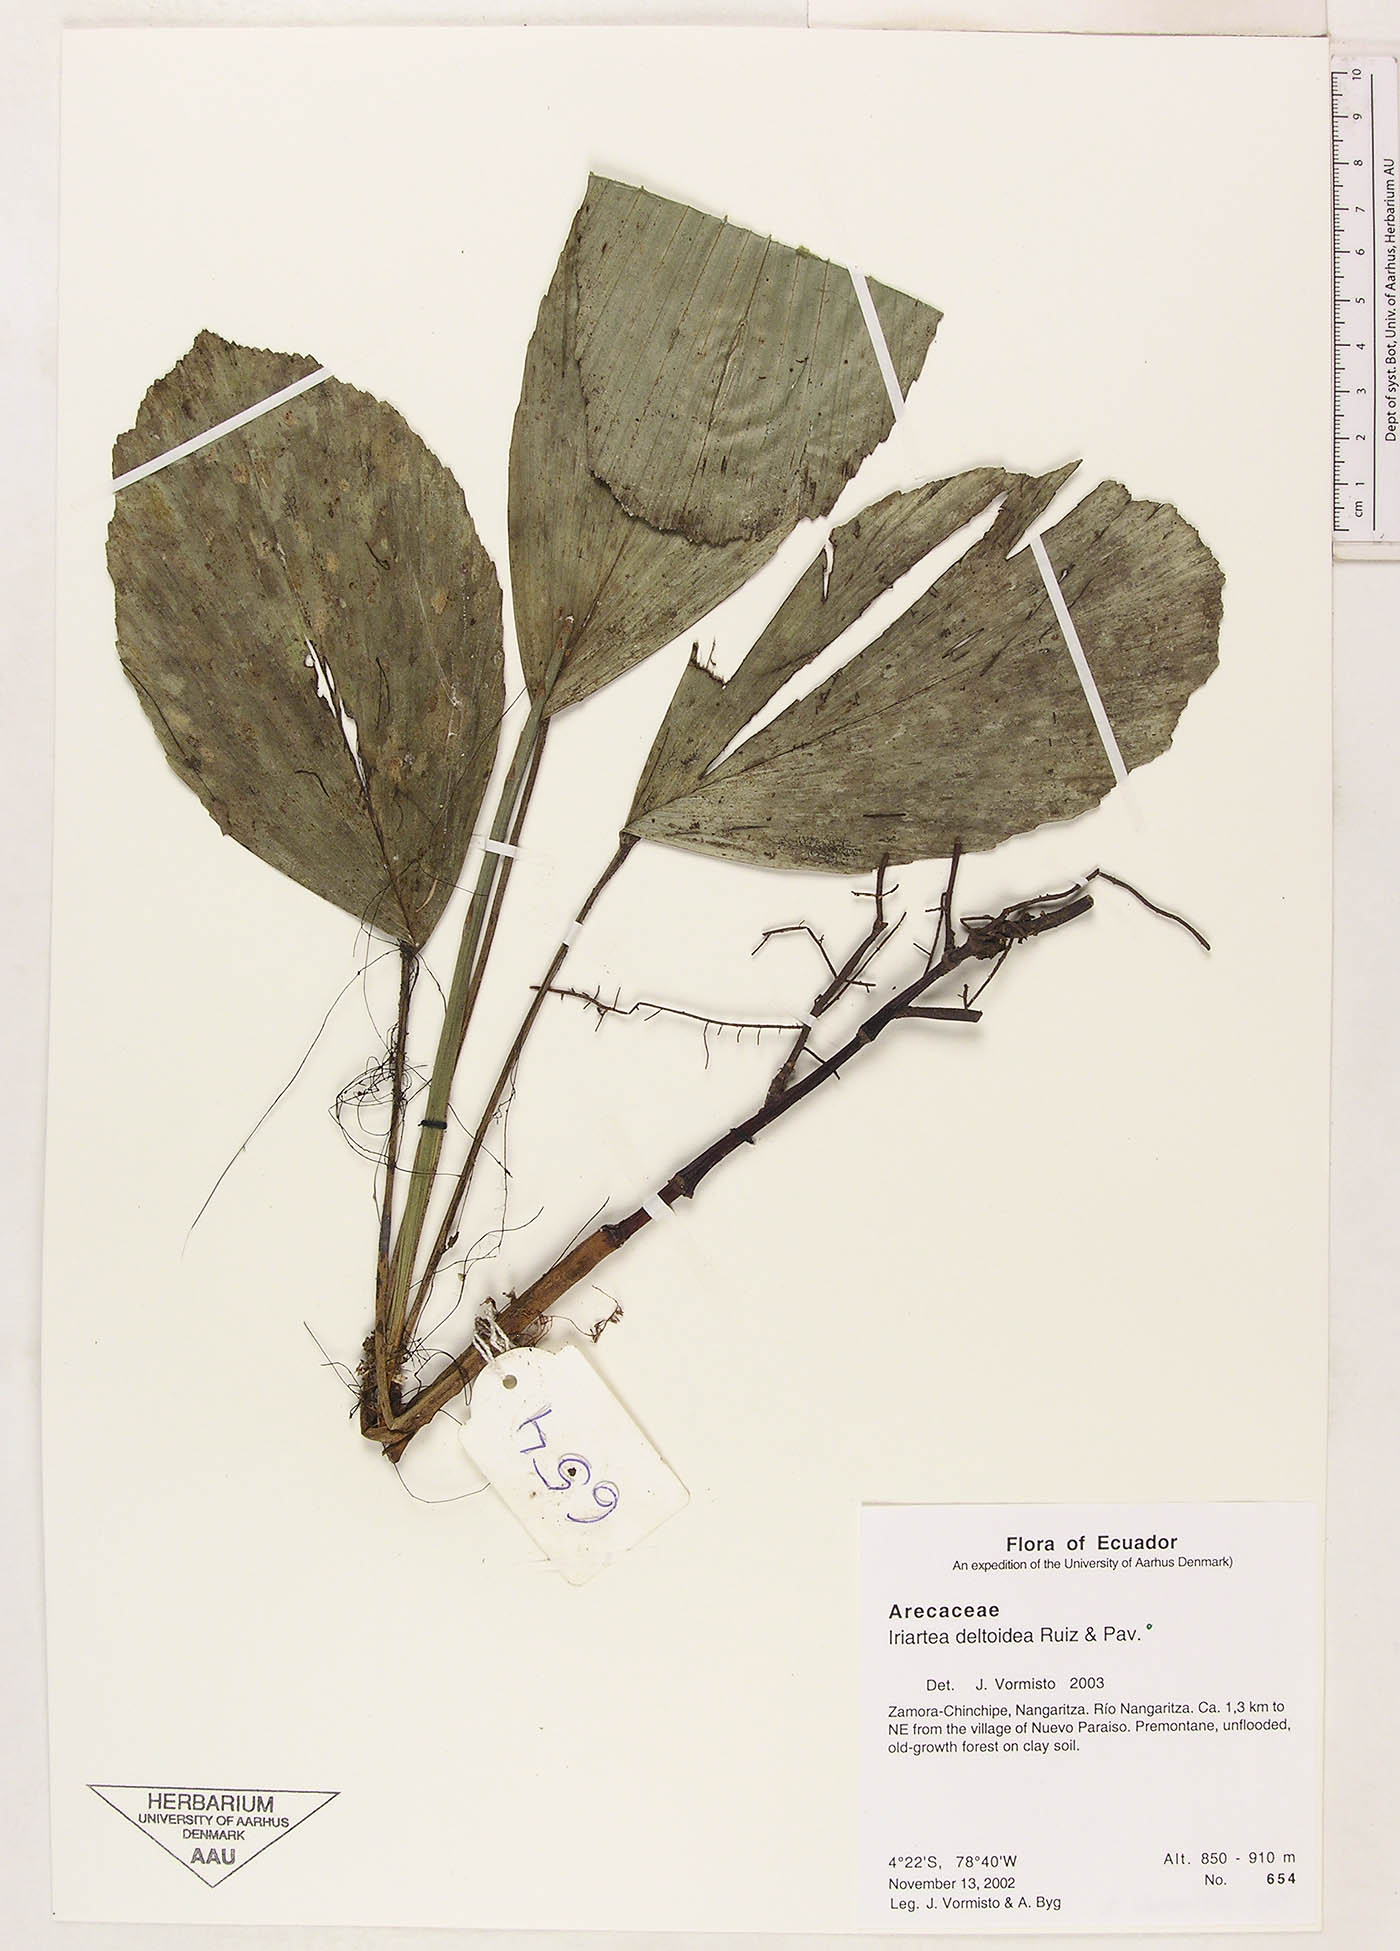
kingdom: Plantae
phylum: Tracheophyta
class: Liliopsida
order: Arecales
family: Arecaceae
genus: Iriartea
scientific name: Iriartea deltoidea
